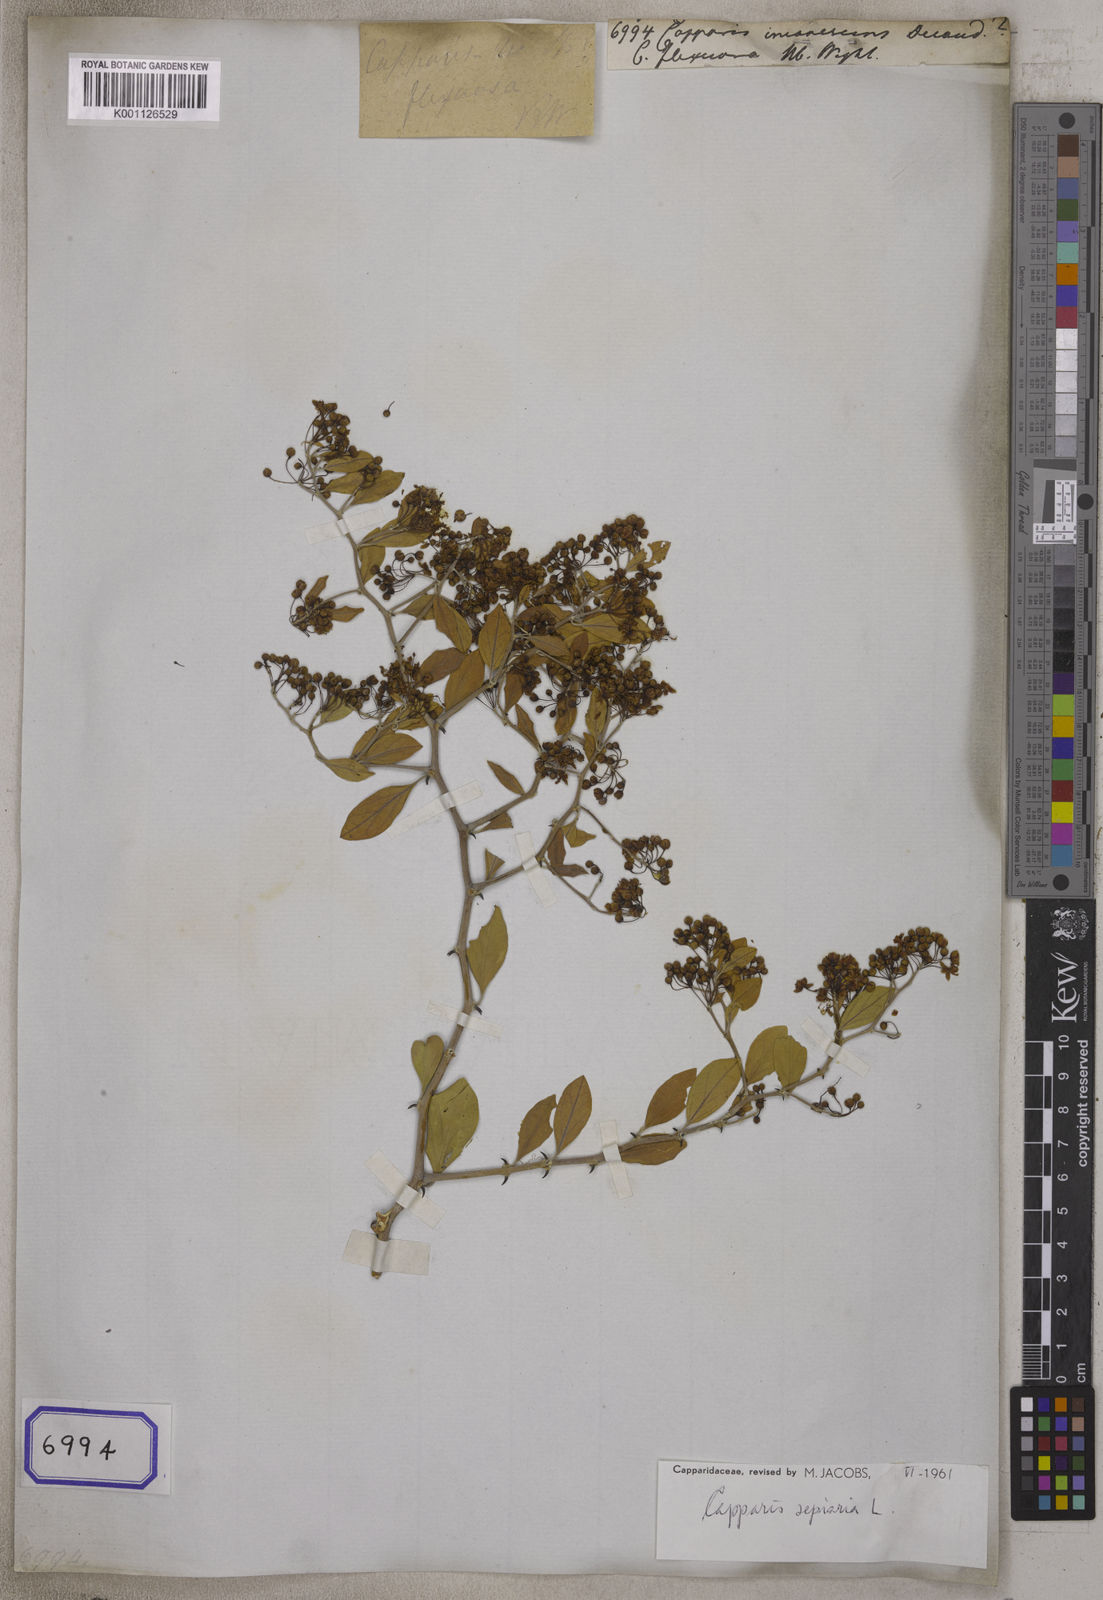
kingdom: Plantae
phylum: Tracheophyta
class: Magnoliopsida
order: Brassicales
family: Capparaceae
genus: Capparis
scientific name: Capparis sepiaria
